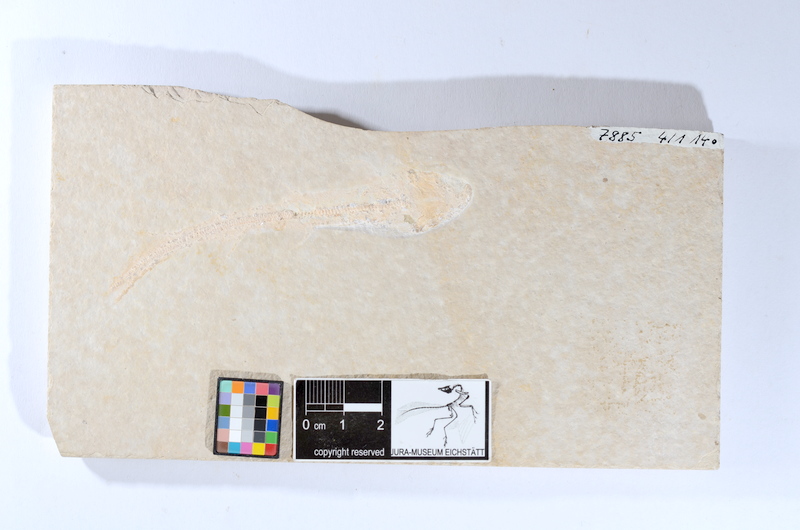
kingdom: Animalia
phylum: Chordata
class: Elasmobranchii
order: Carcharhiniformes
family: Scyliorhinidae
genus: Palaeoscyllium
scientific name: Palaeoscyllium formosum
